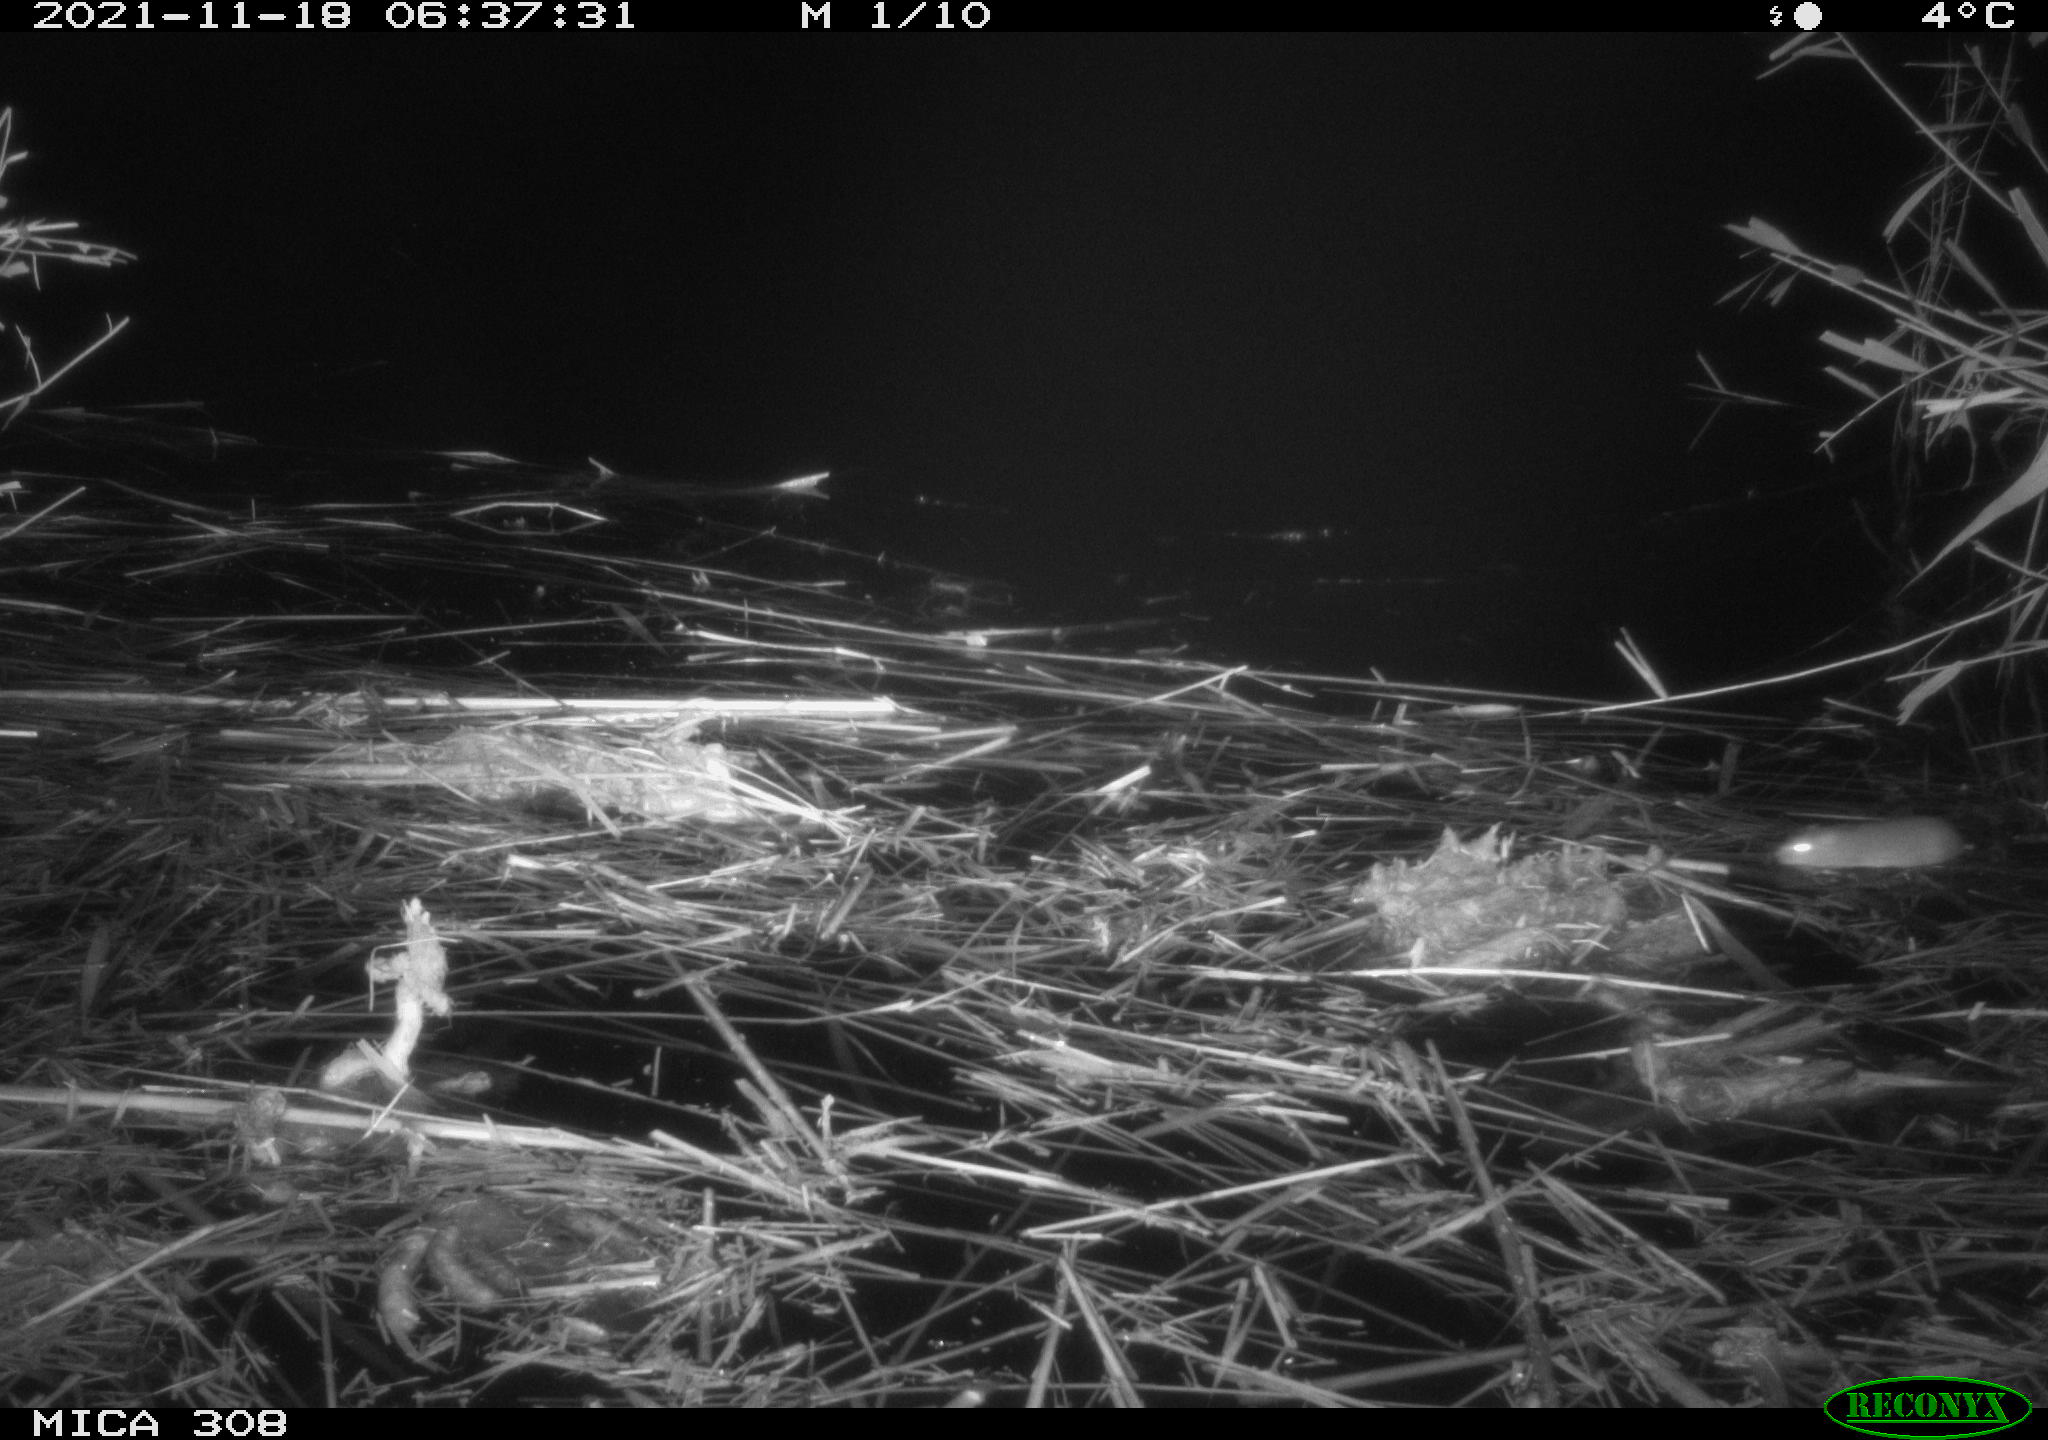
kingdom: Animalia
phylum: Chordata
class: Mammalia
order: Rodentia
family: Muridae
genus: Rattus
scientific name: Rattus norvegicus
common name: Brown rat
